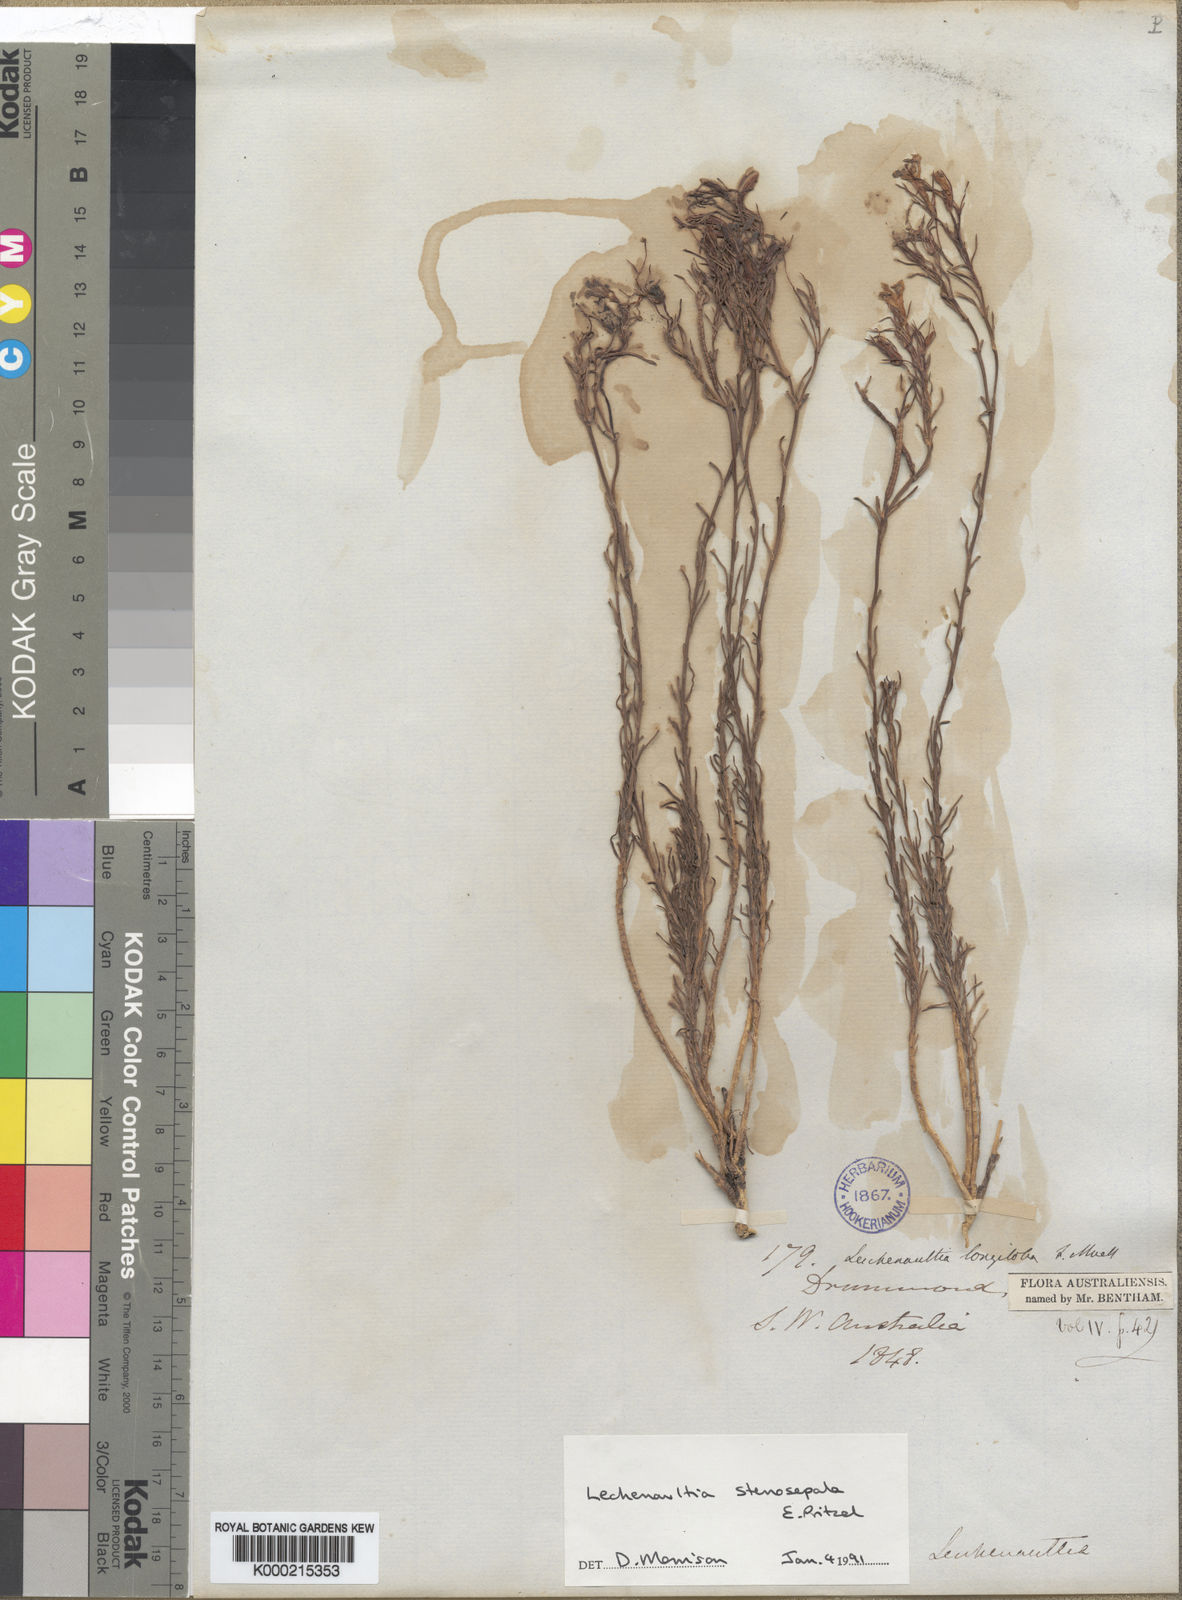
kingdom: Plantae
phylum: Tracheophyta
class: Magnoliopsida
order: Asterales
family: Goodeniaceae
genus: Leschenaultia
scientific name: Leschenaultia stenosepala
